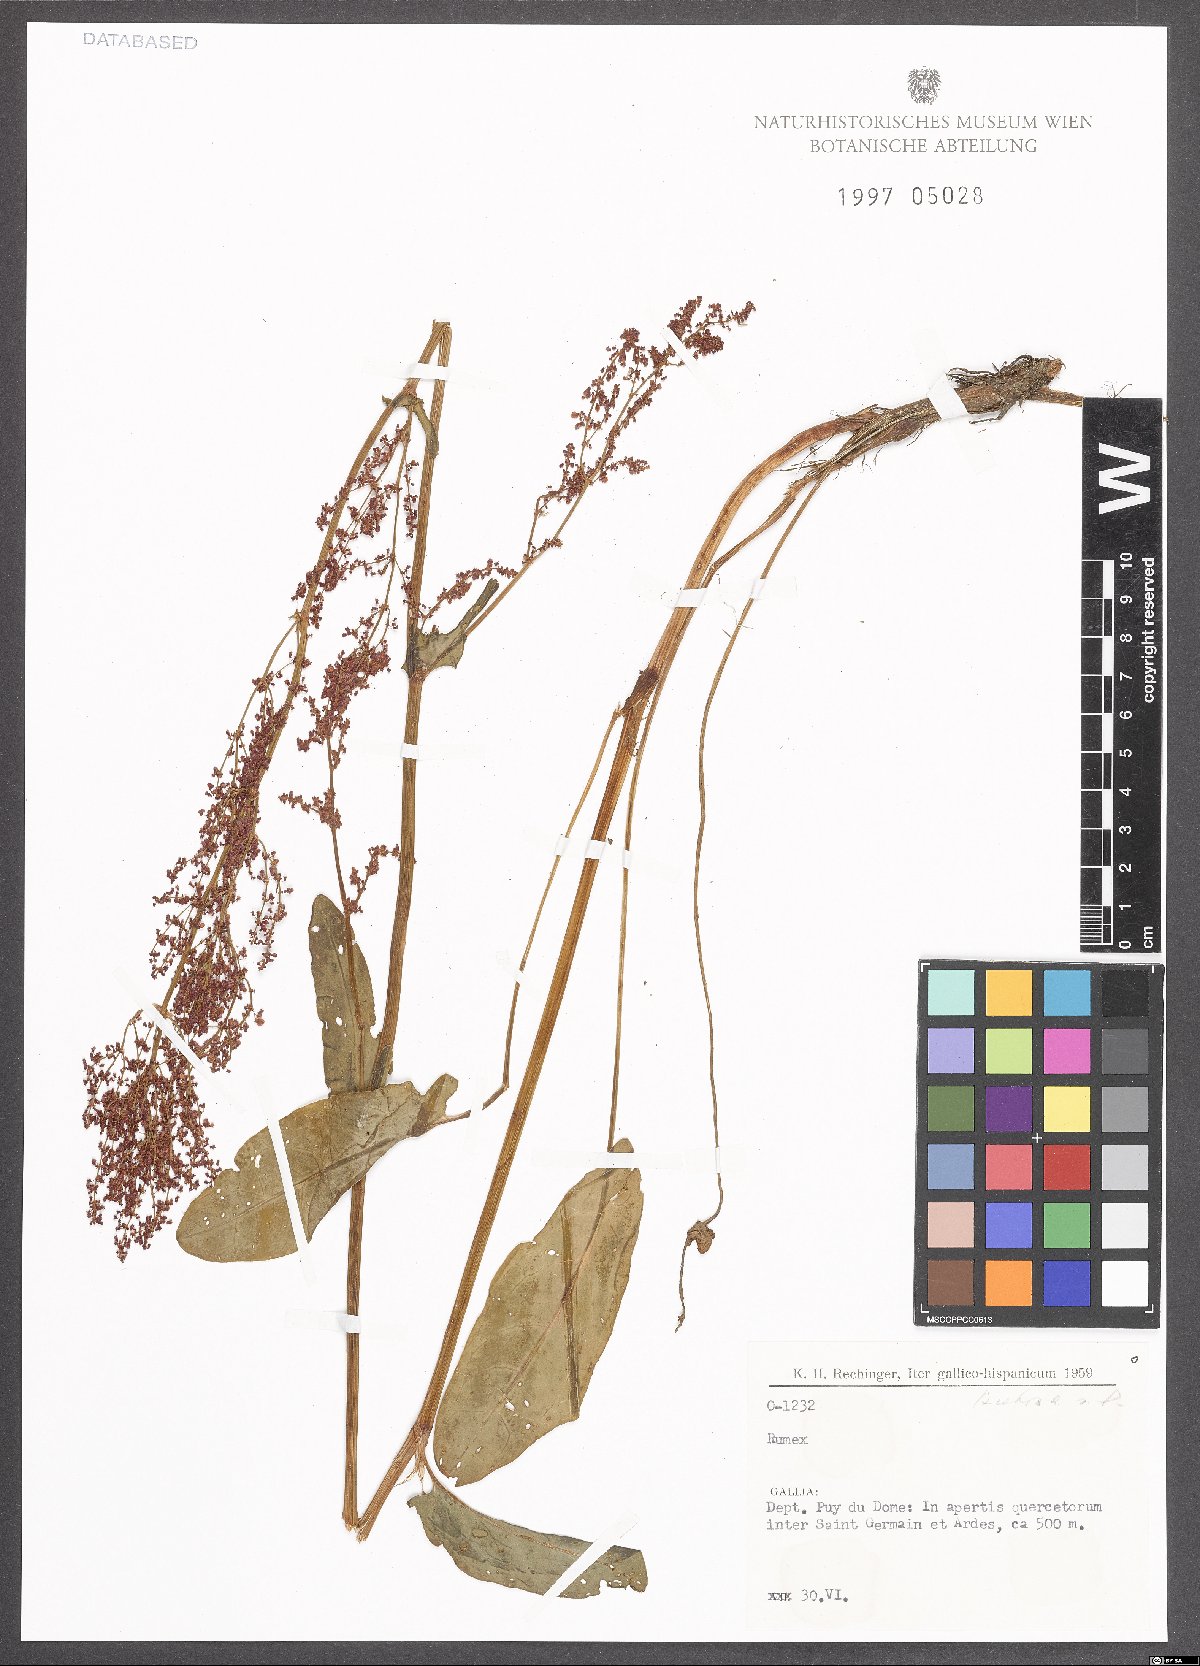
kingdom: Plantae
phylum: Tracheophyta
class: Magnoliopsida
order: Caryophyllales
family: Polygonaceae
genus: Rumex
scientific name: Rumex acetosa
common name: Garden sorrel
